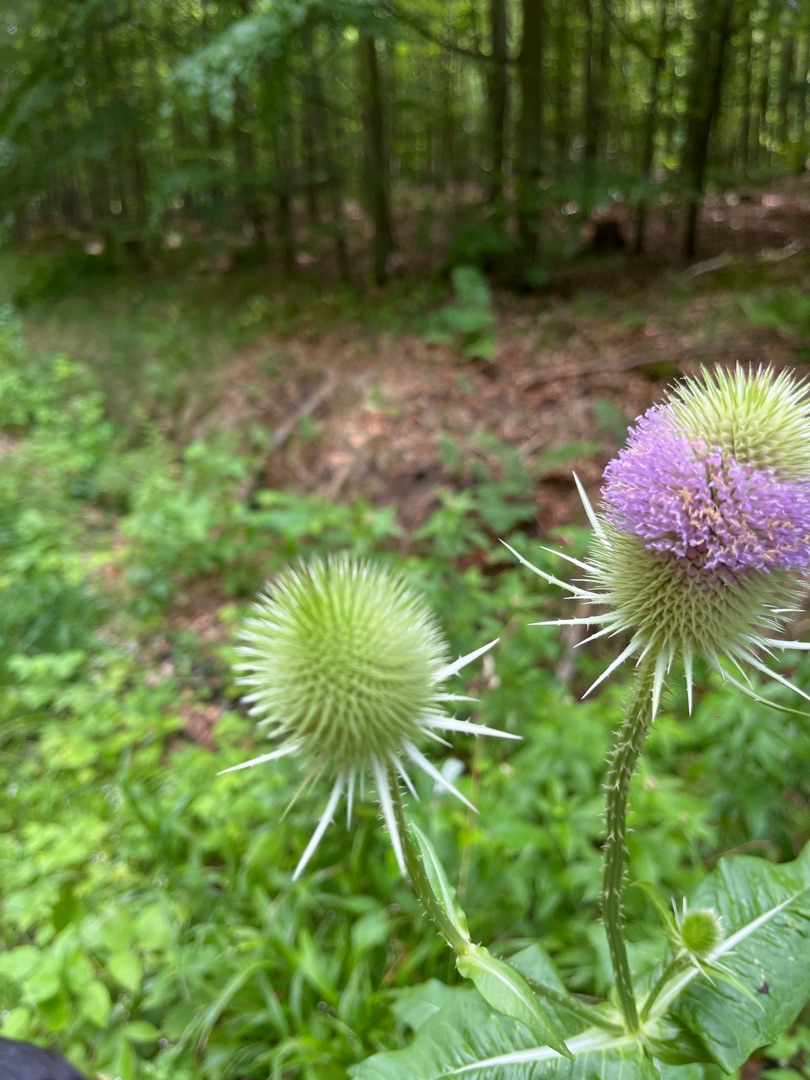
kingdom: Plantae
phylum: Tracheophyta
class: Magnoliopsida
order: Dipsacales
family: Caprifoliaceae
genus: Dipsacus
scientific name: Dipsacus fullonum
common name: Gærde-kartebolle
